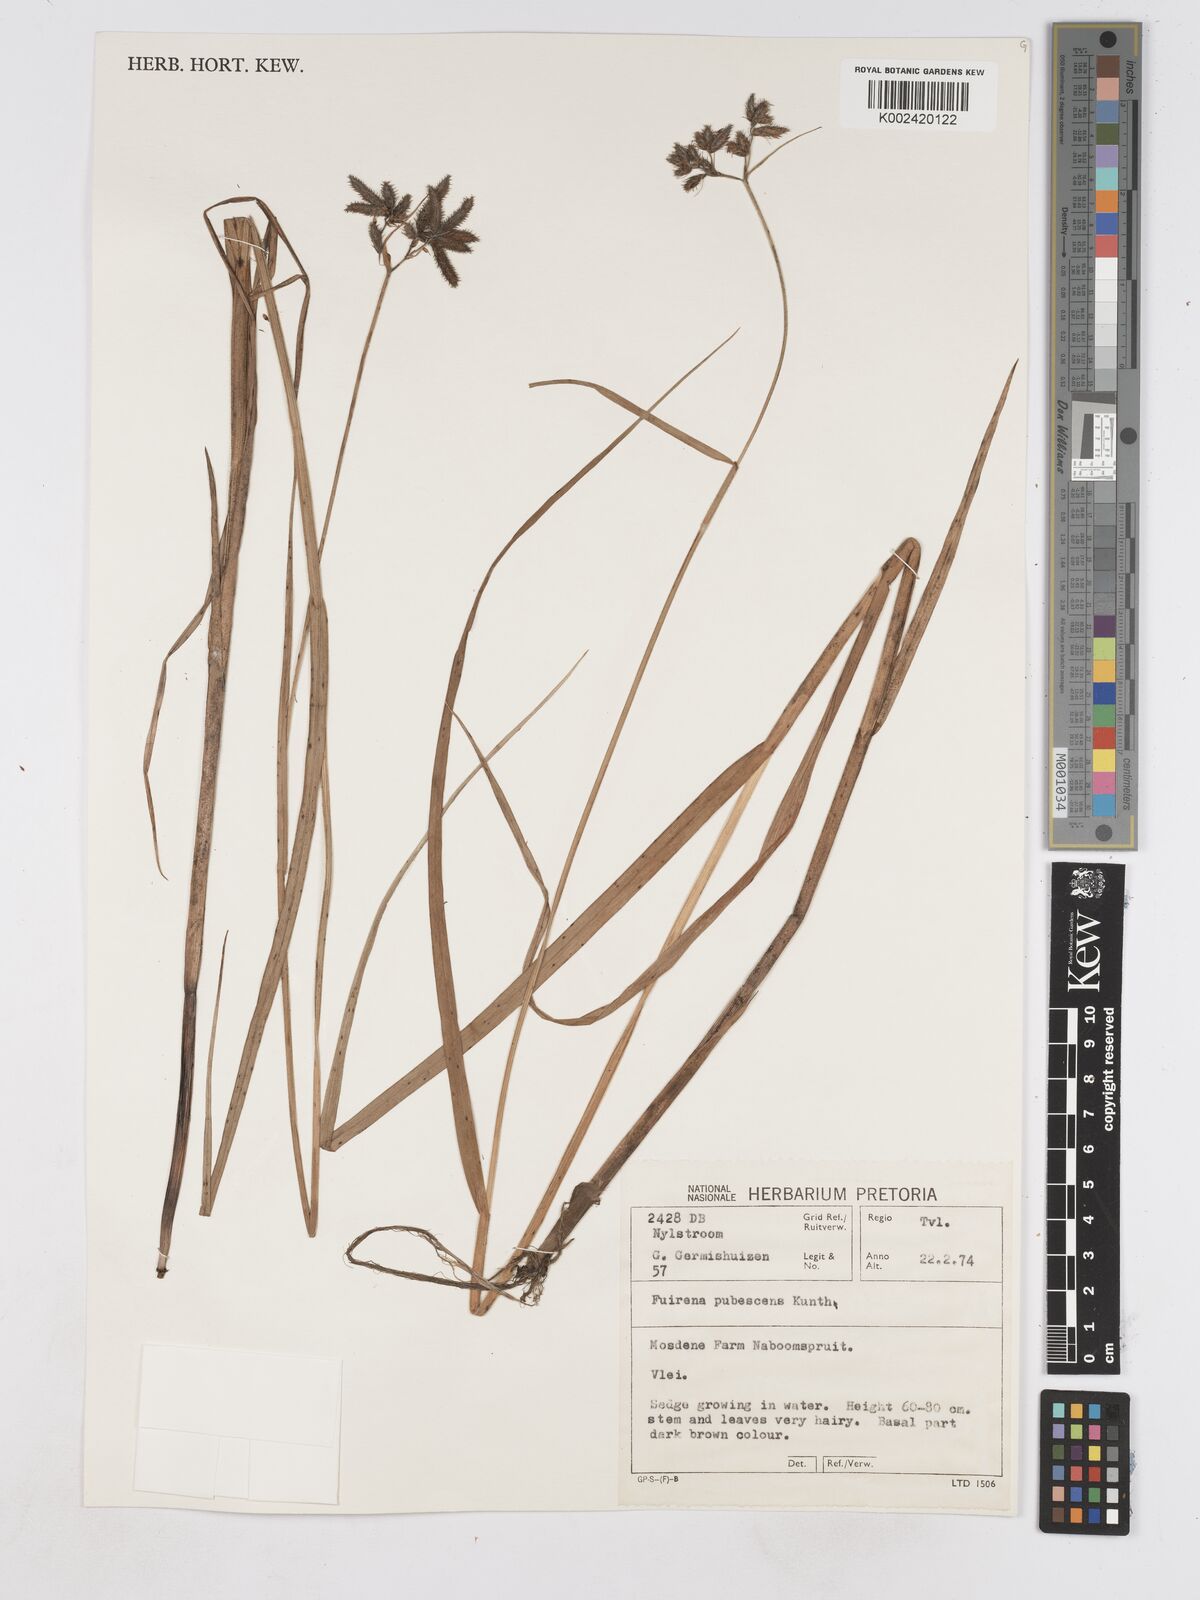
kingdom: Plantae
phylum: Tracheophyta
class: Liliopsida
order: Poales
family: Cyperaceae
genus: Fuirena
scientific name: Fuirena pubescens
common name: Hairy sedge
